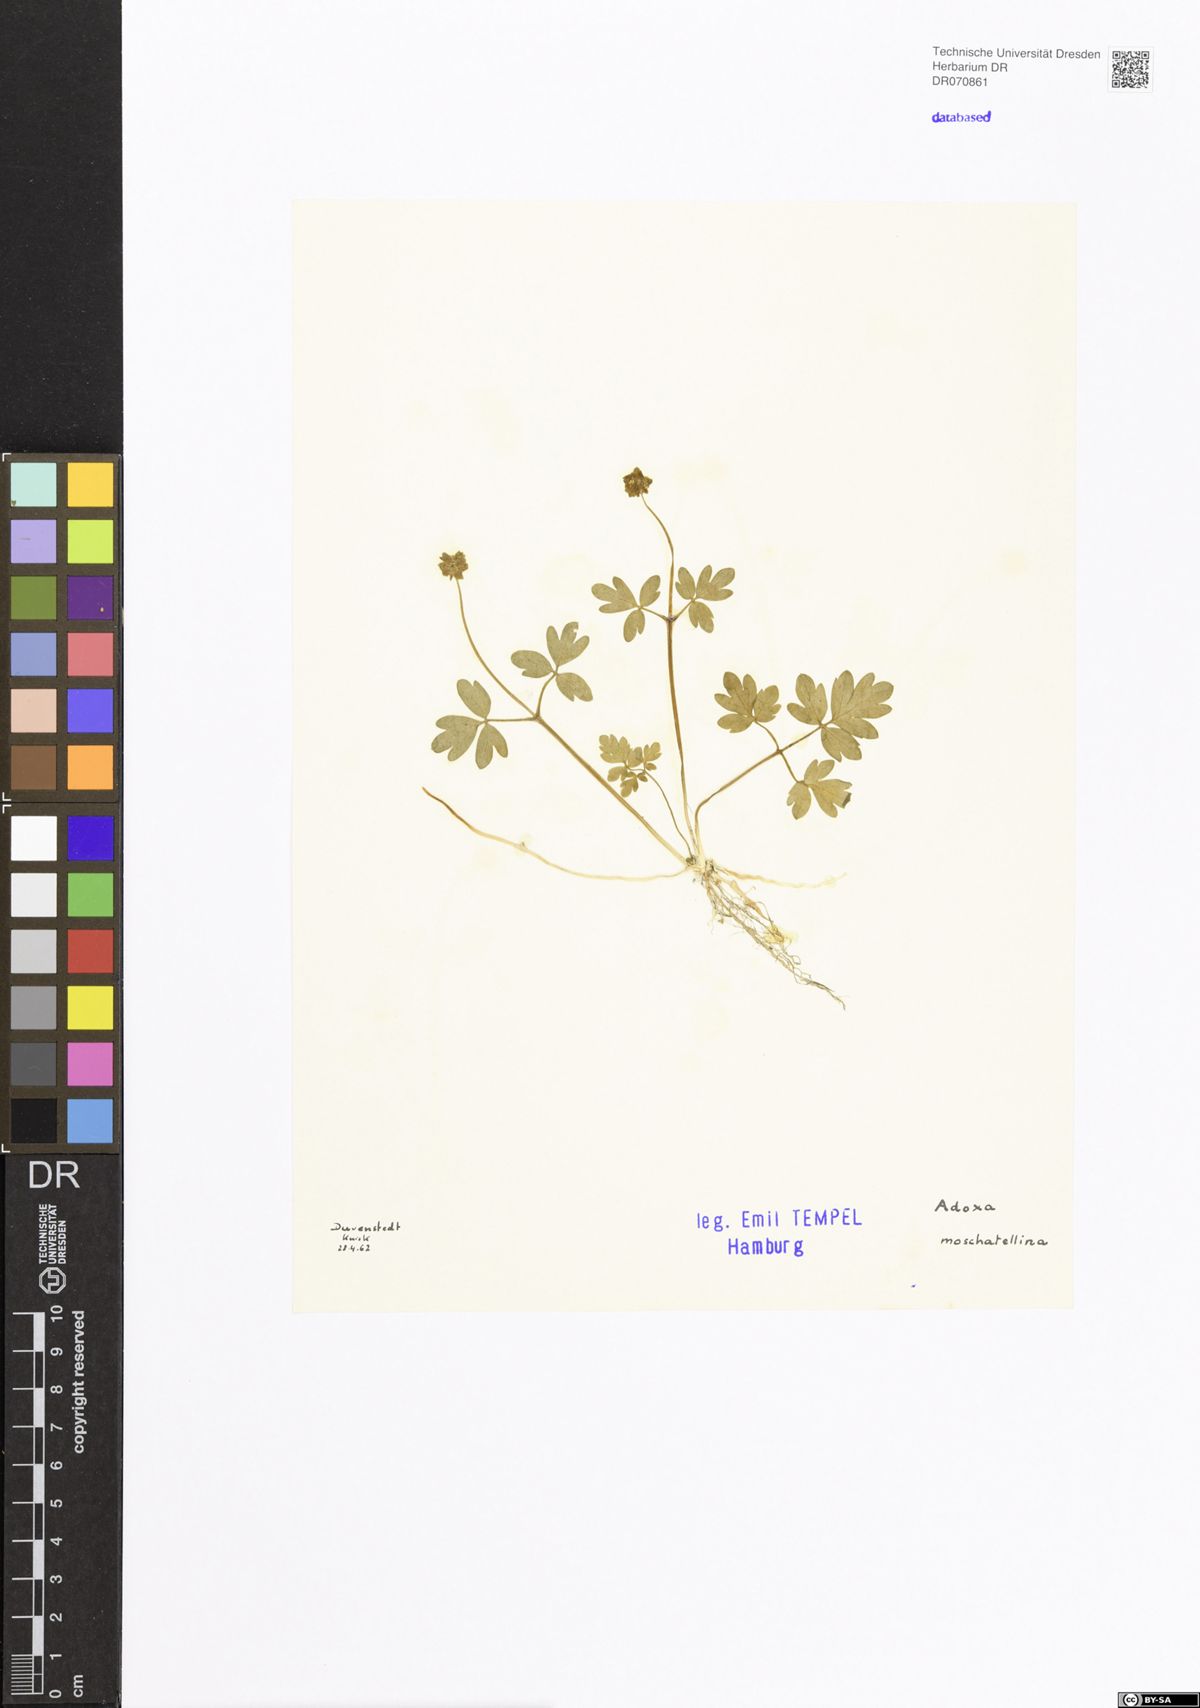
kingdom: Plantae
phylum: Tracheophyta
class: Magnoliopsida
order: Dipsacales
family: Viburnaceae
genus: Adoxa
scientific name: Adoxa moschatellina
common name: Moschatel
